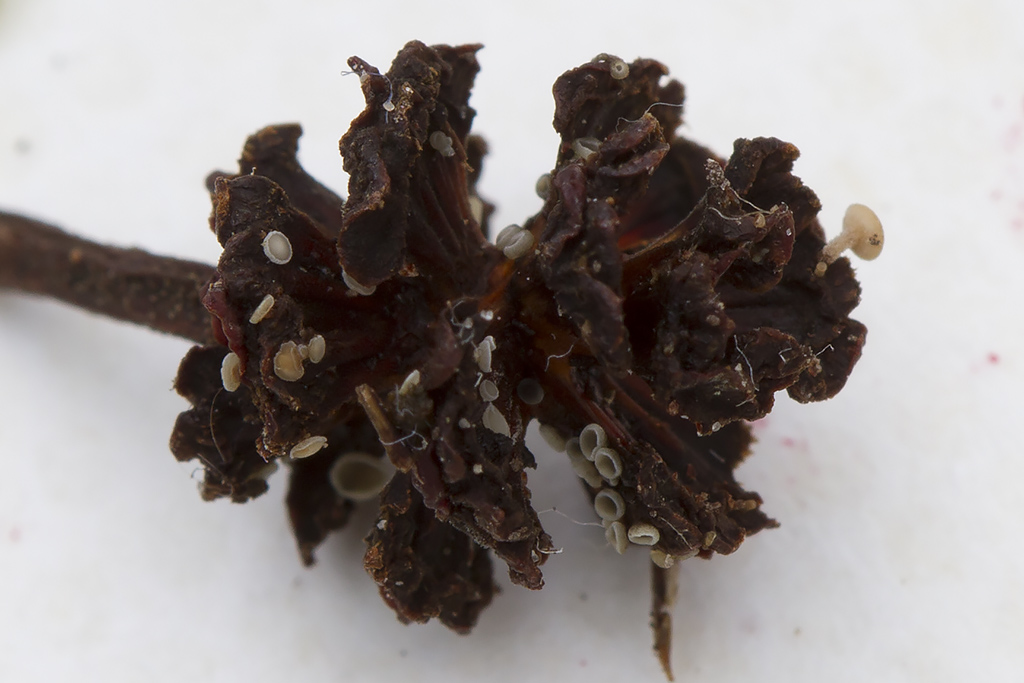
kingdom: Fungi
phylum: Ascomycota
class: Leotiomycetes
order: Helotiales
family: Mollisiaceae
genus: Mollisia
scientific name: Mollisia amenticola
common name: ellekogle-gråskive
